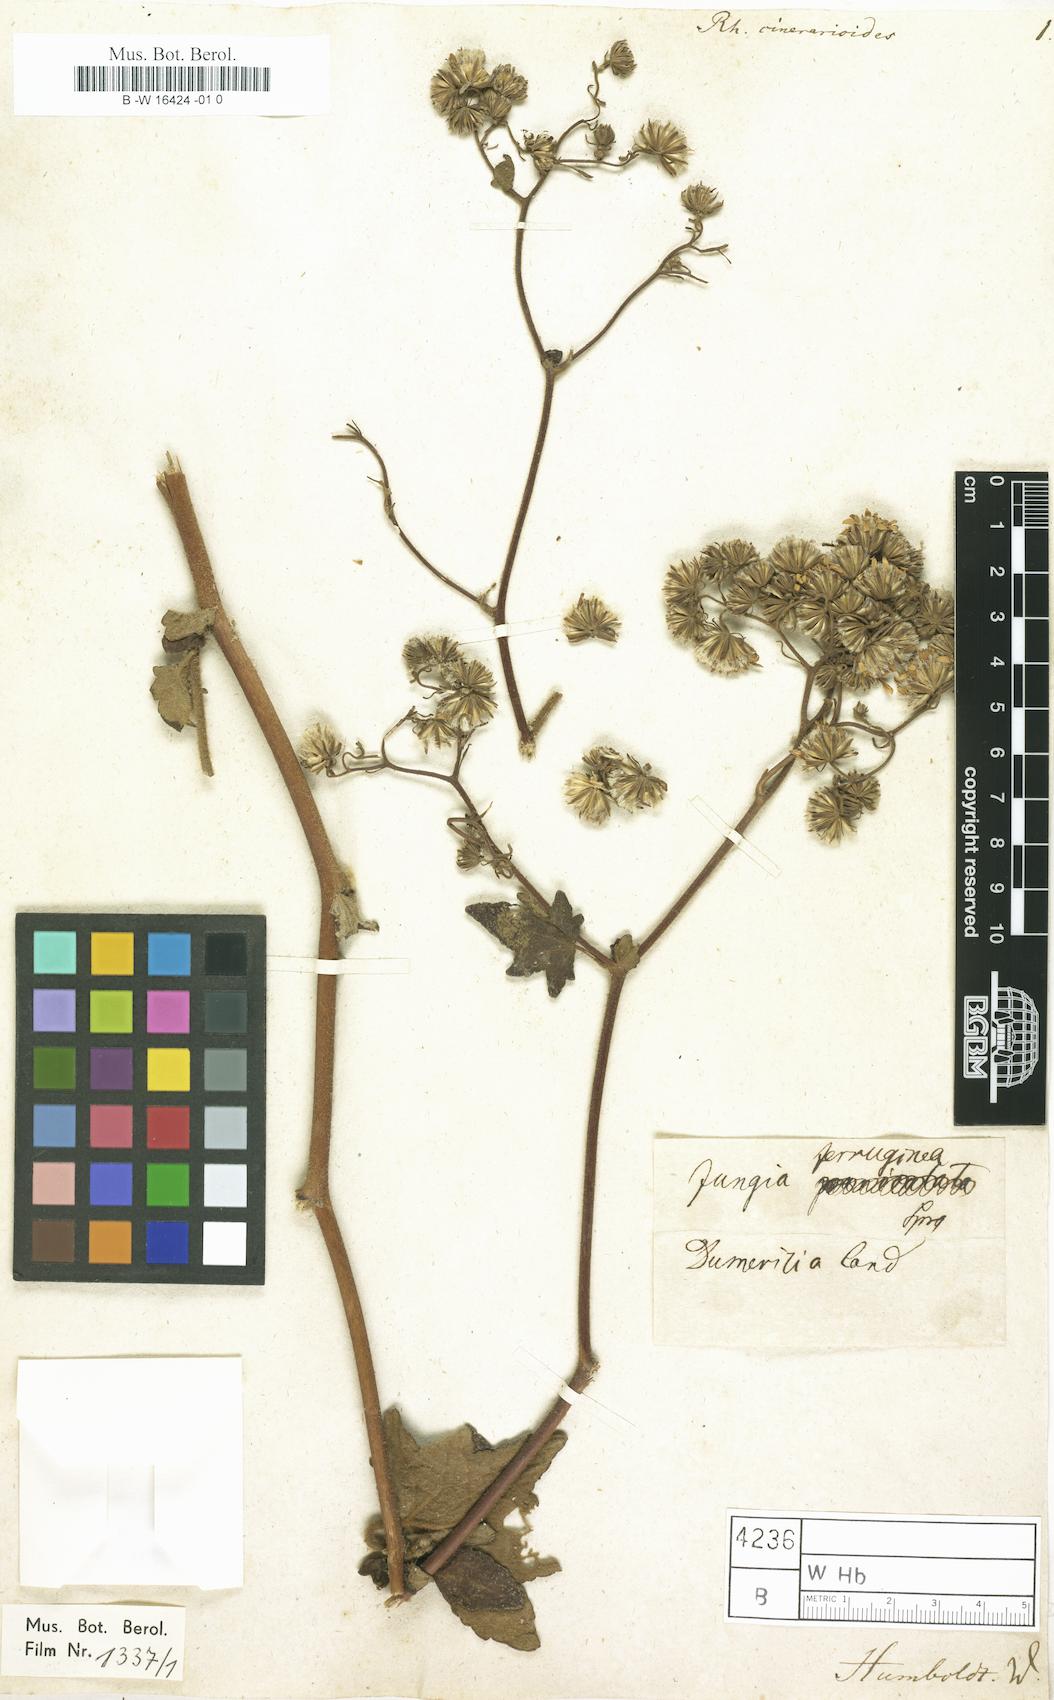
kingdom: Plantae
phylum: Tracheophyta
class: Magnoliopsida
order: Asterales
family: Asteraceae
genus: Jungia
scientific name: Jungia paniculata
